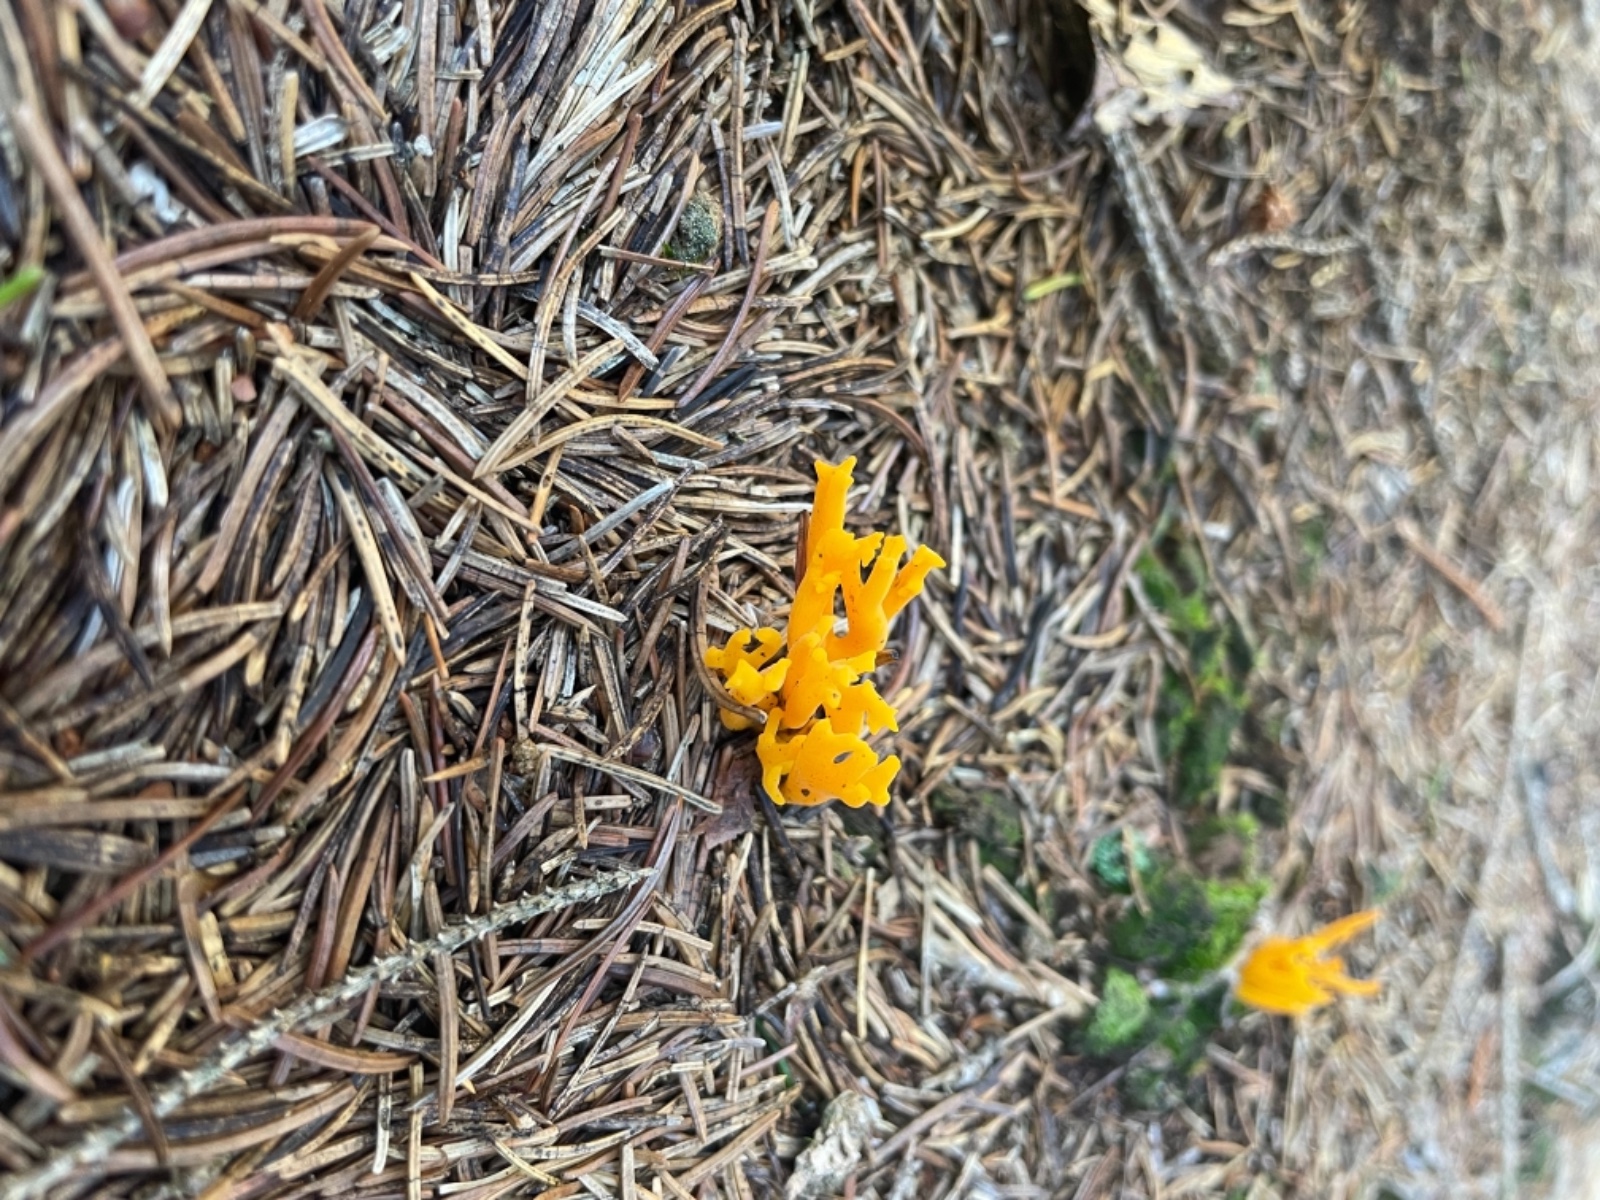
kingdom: Fungi
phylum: Basidiomycota
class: Dacrymycetes
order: Dacrymycetales
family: Dacrymycetaceae
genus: Calocera
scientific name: Calocera viscosa
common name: almindelig guldgaffel
